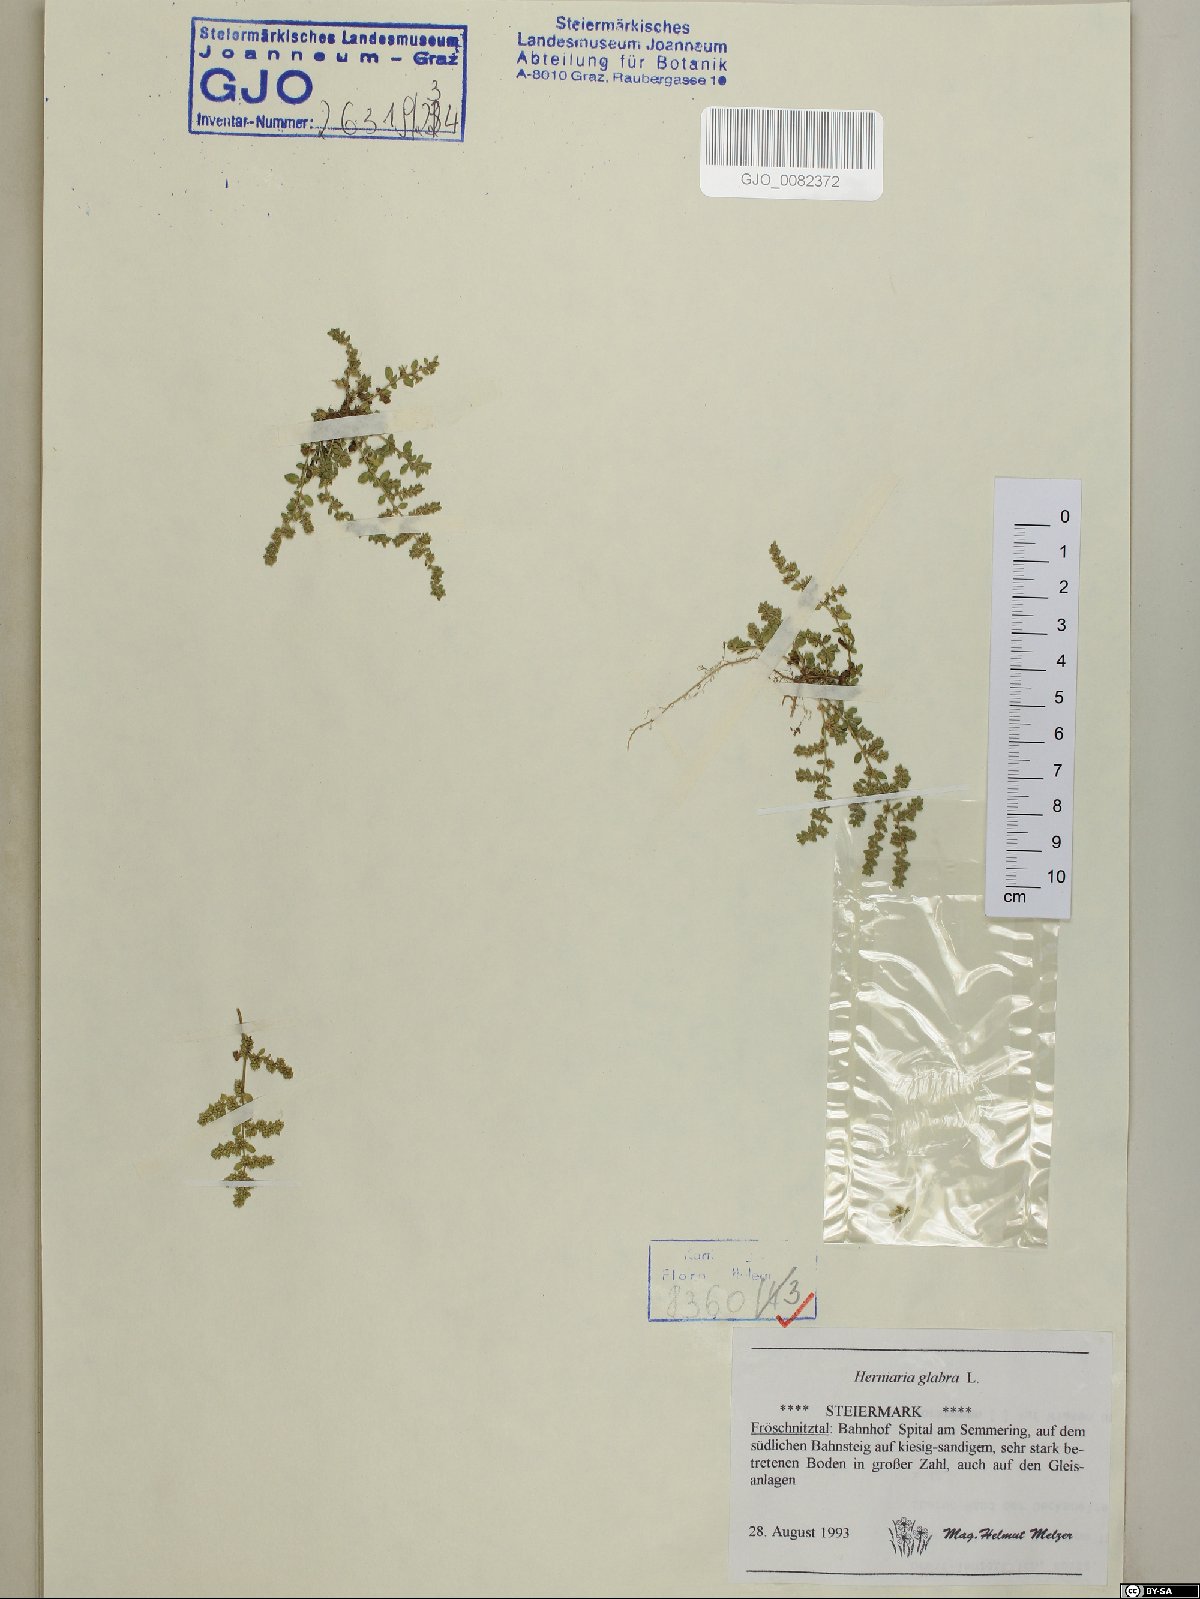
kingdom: Plantae
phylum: Tracheophyta
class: Magnoliopsida
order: Caryophyllales
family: Caryophyllaceae
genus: Herniaria
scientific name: Herniaria glabra
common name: Smooth rupturewort
